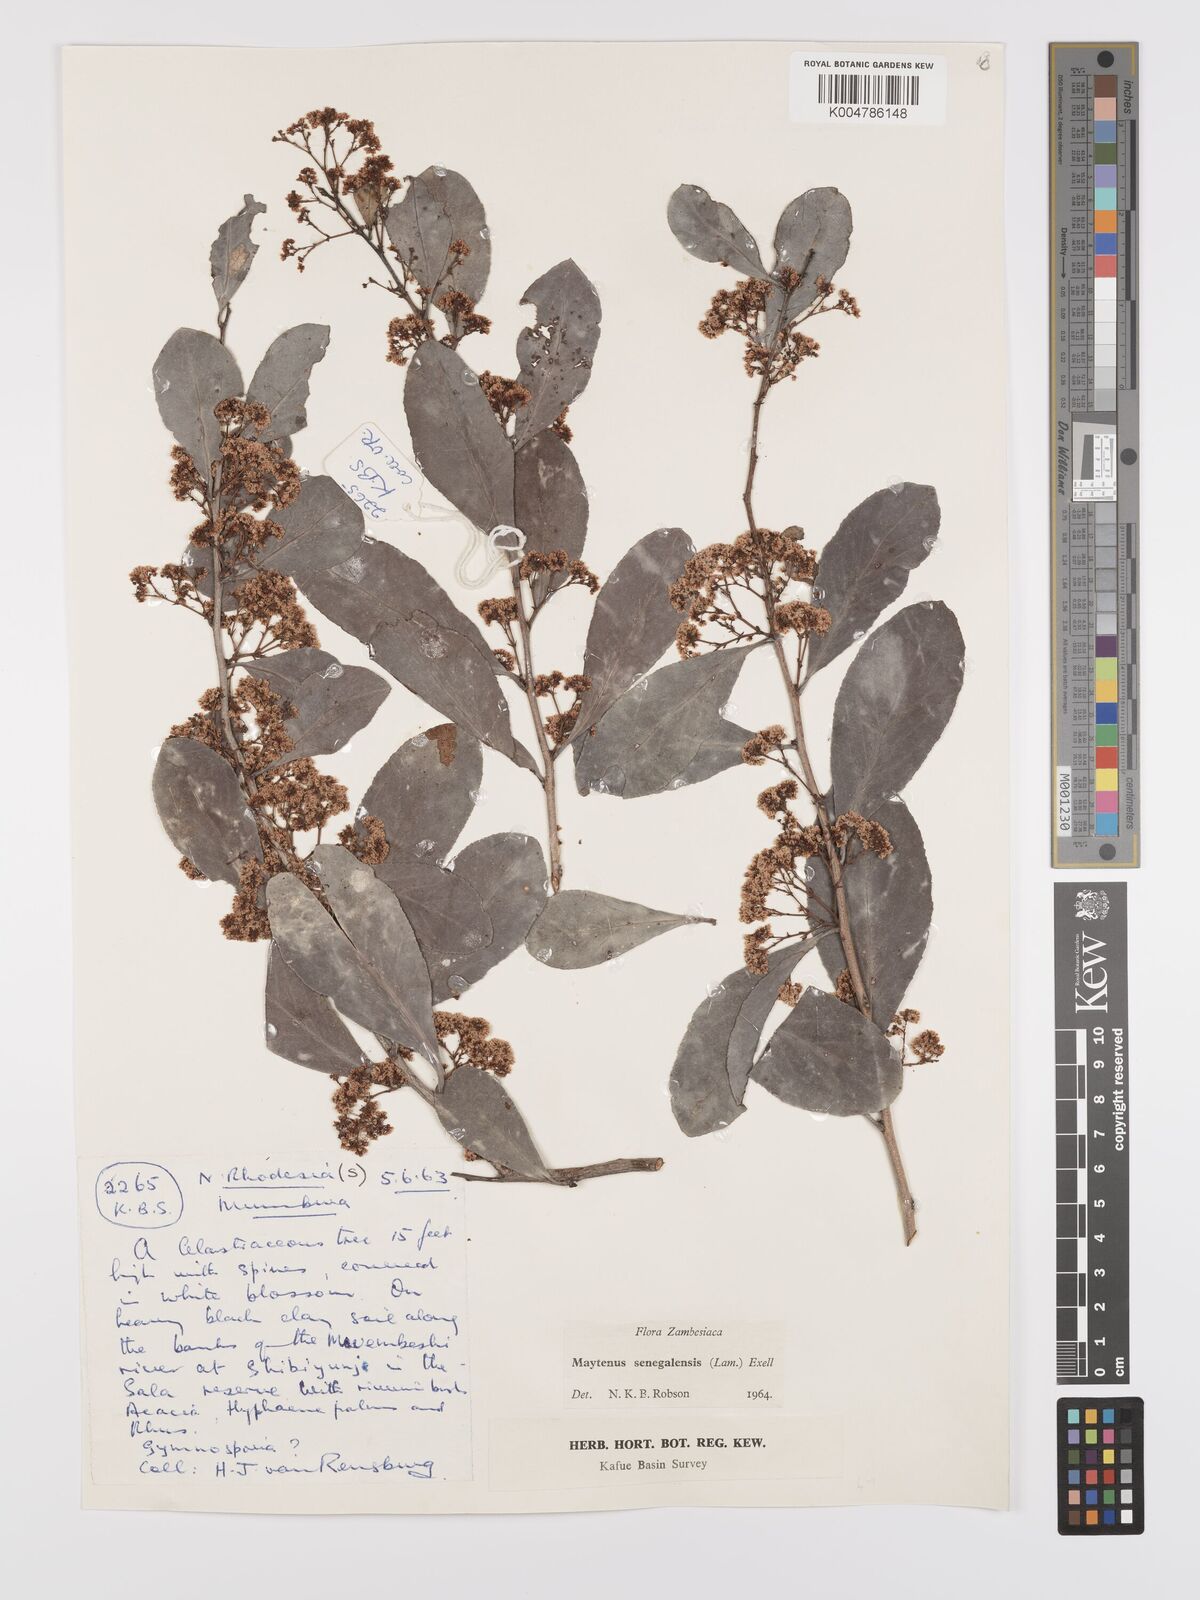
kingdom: Plantae
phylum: Tracheophyta
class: Magnoliopsida
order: Celastrales
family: Celastraceae
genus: Gymnosporia
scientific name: Gymnosporia senegalensis
